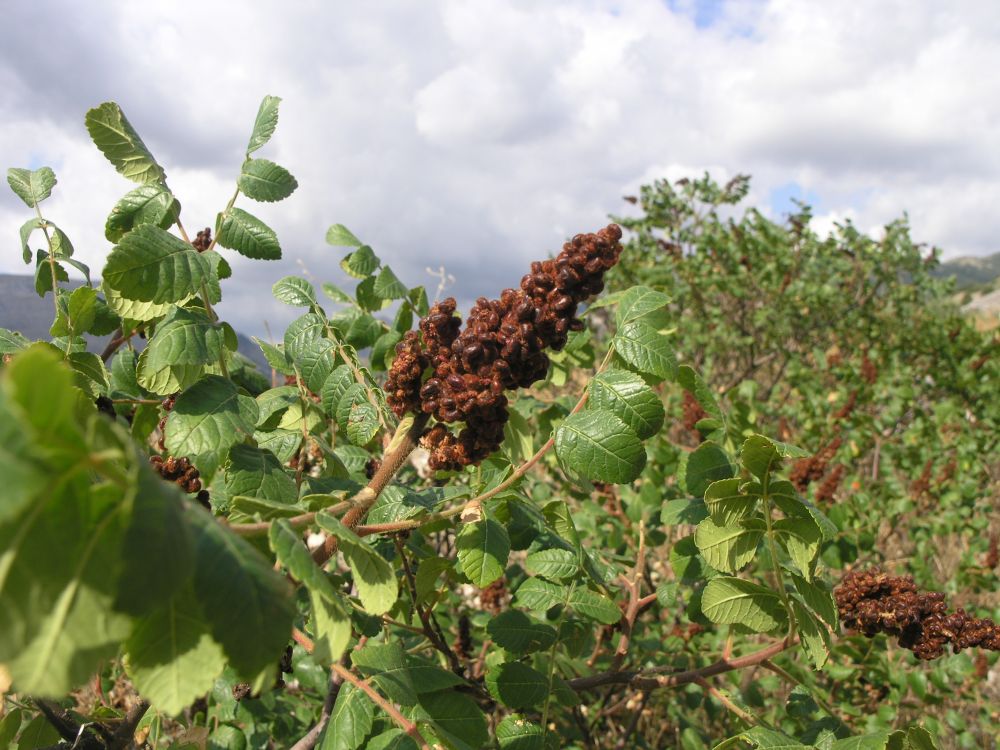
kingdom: Plantae
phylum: Tracheophyta
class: Magnoliopsida
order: Sapindales
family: Anacardiaceae
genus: Rhus
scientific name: Rhus coriaria
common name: Tanner's sumach
